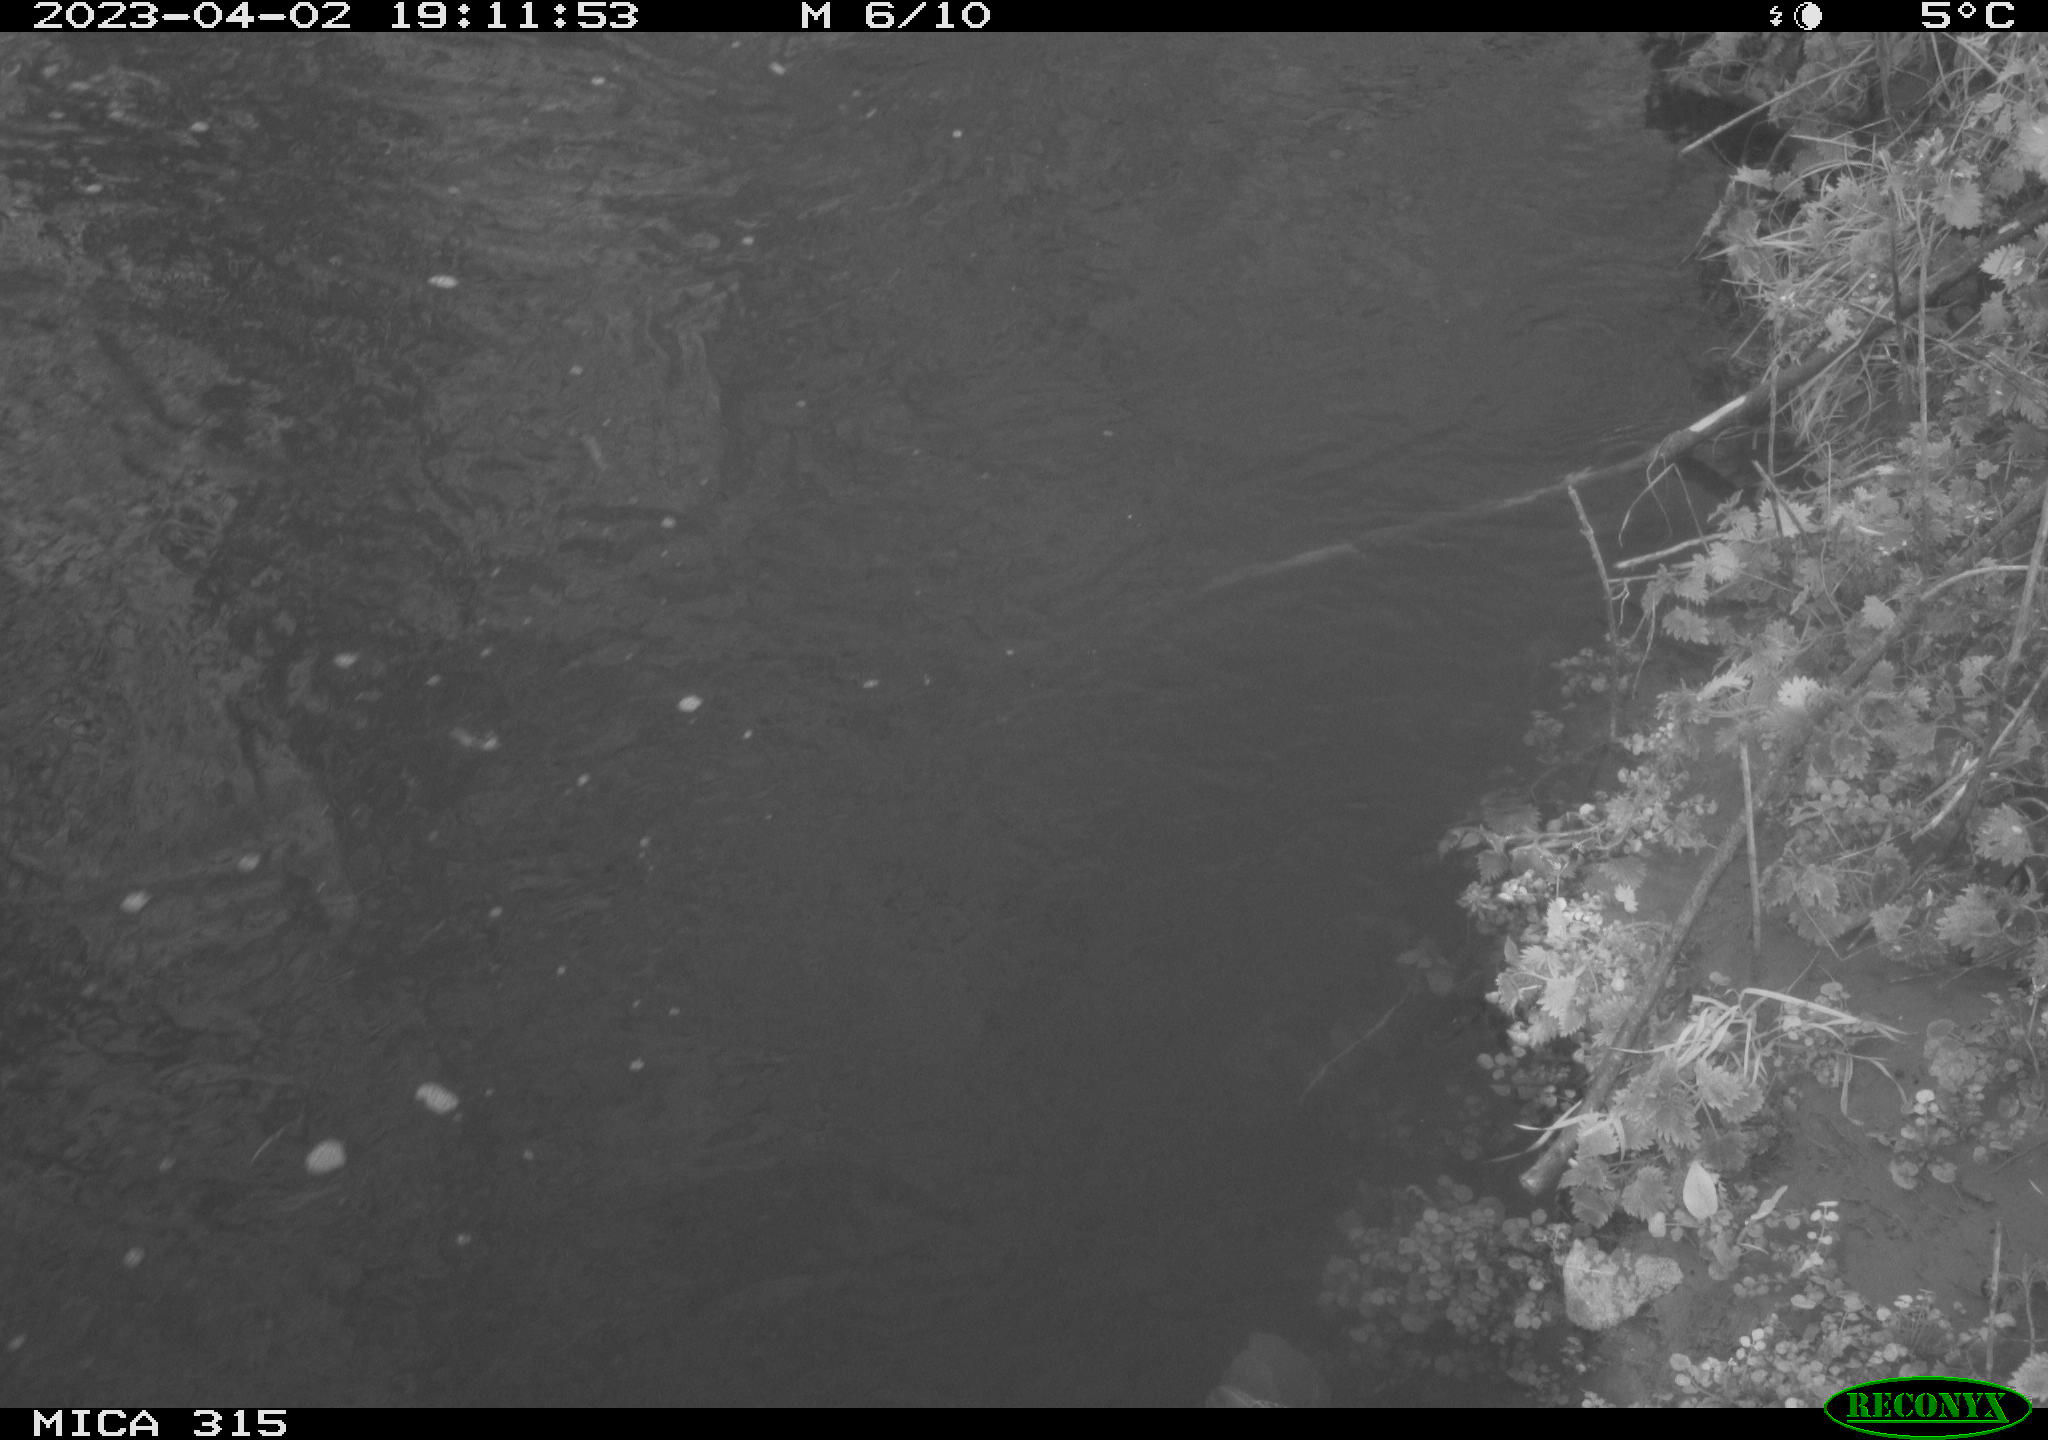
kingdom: Animalia
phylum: Chordata
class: Aves
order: Gruiformes
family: Rallidae
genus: Gallinula
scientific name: Gallinula chloropus
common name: Common moorhen
